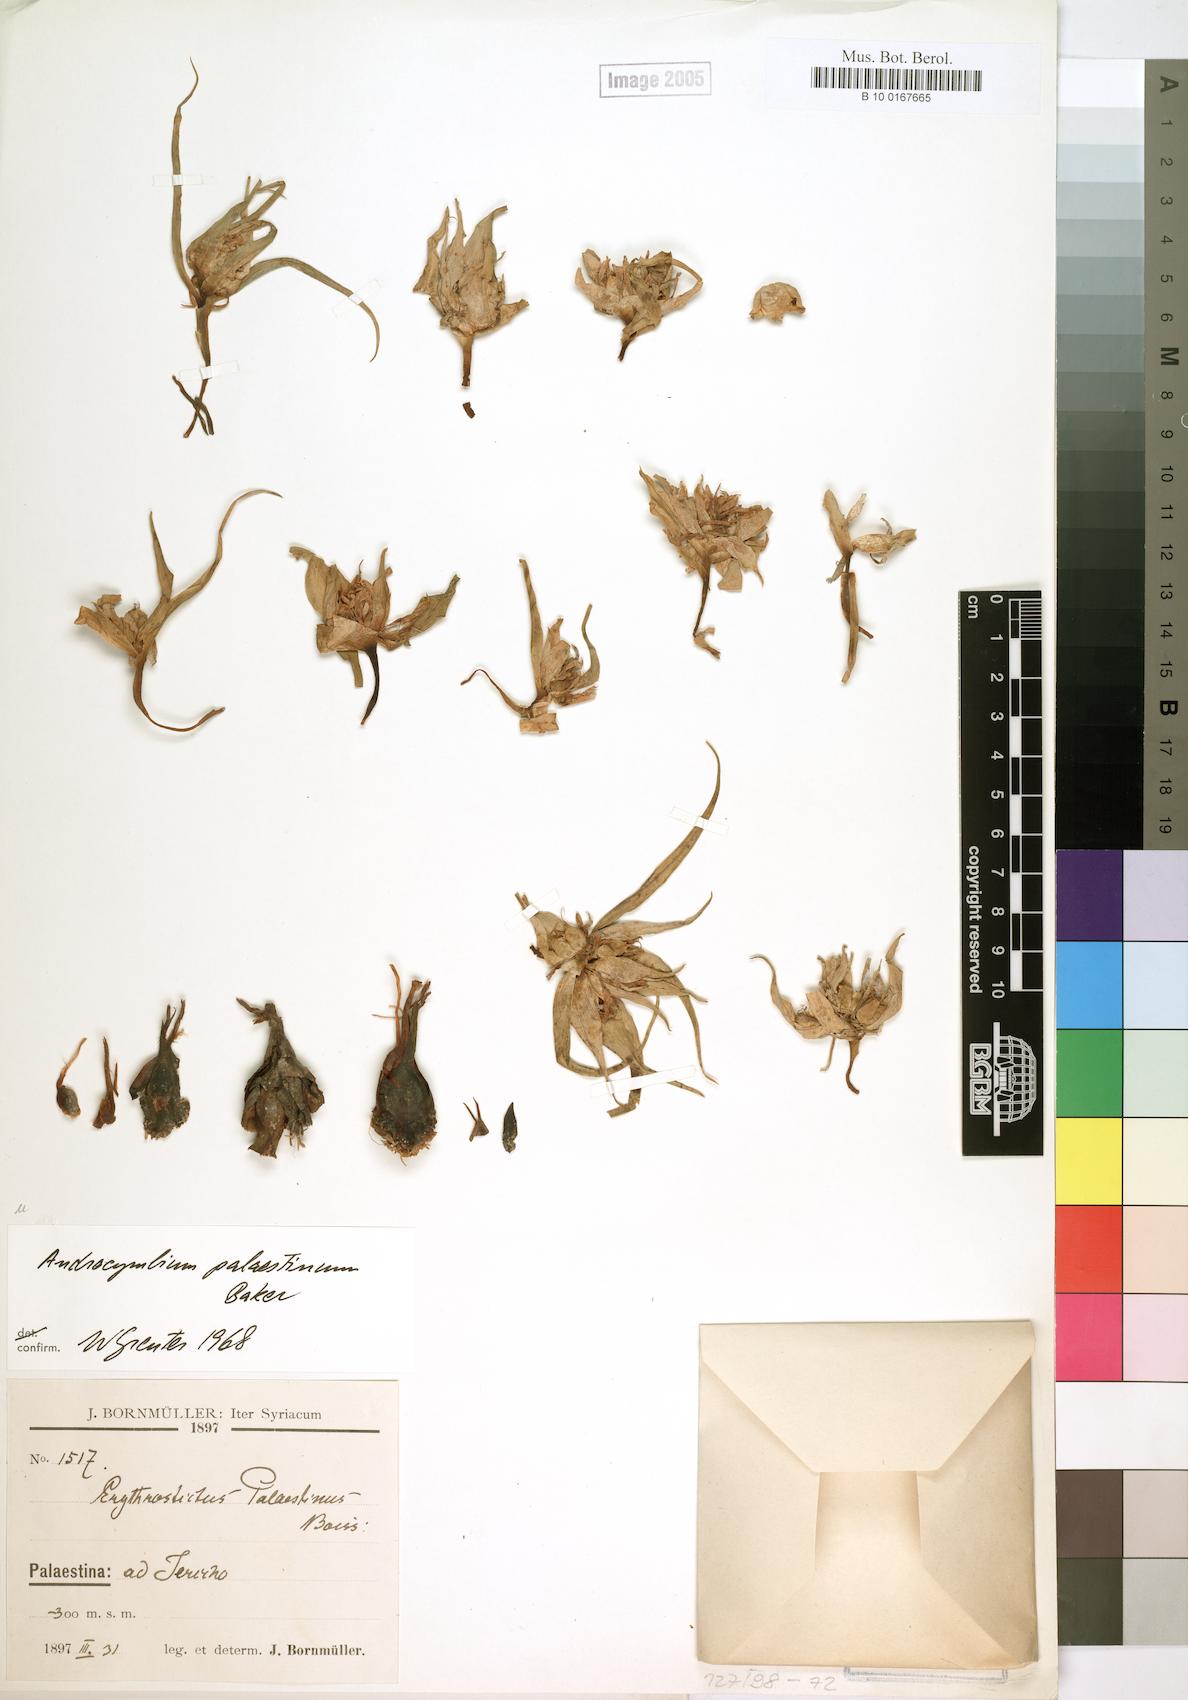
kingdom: Plantae
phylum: Tracheophyta
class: Liliopsida
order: Liliales
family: Colchicaceae
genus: Colchicum
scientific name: Colchicum palaestinum
